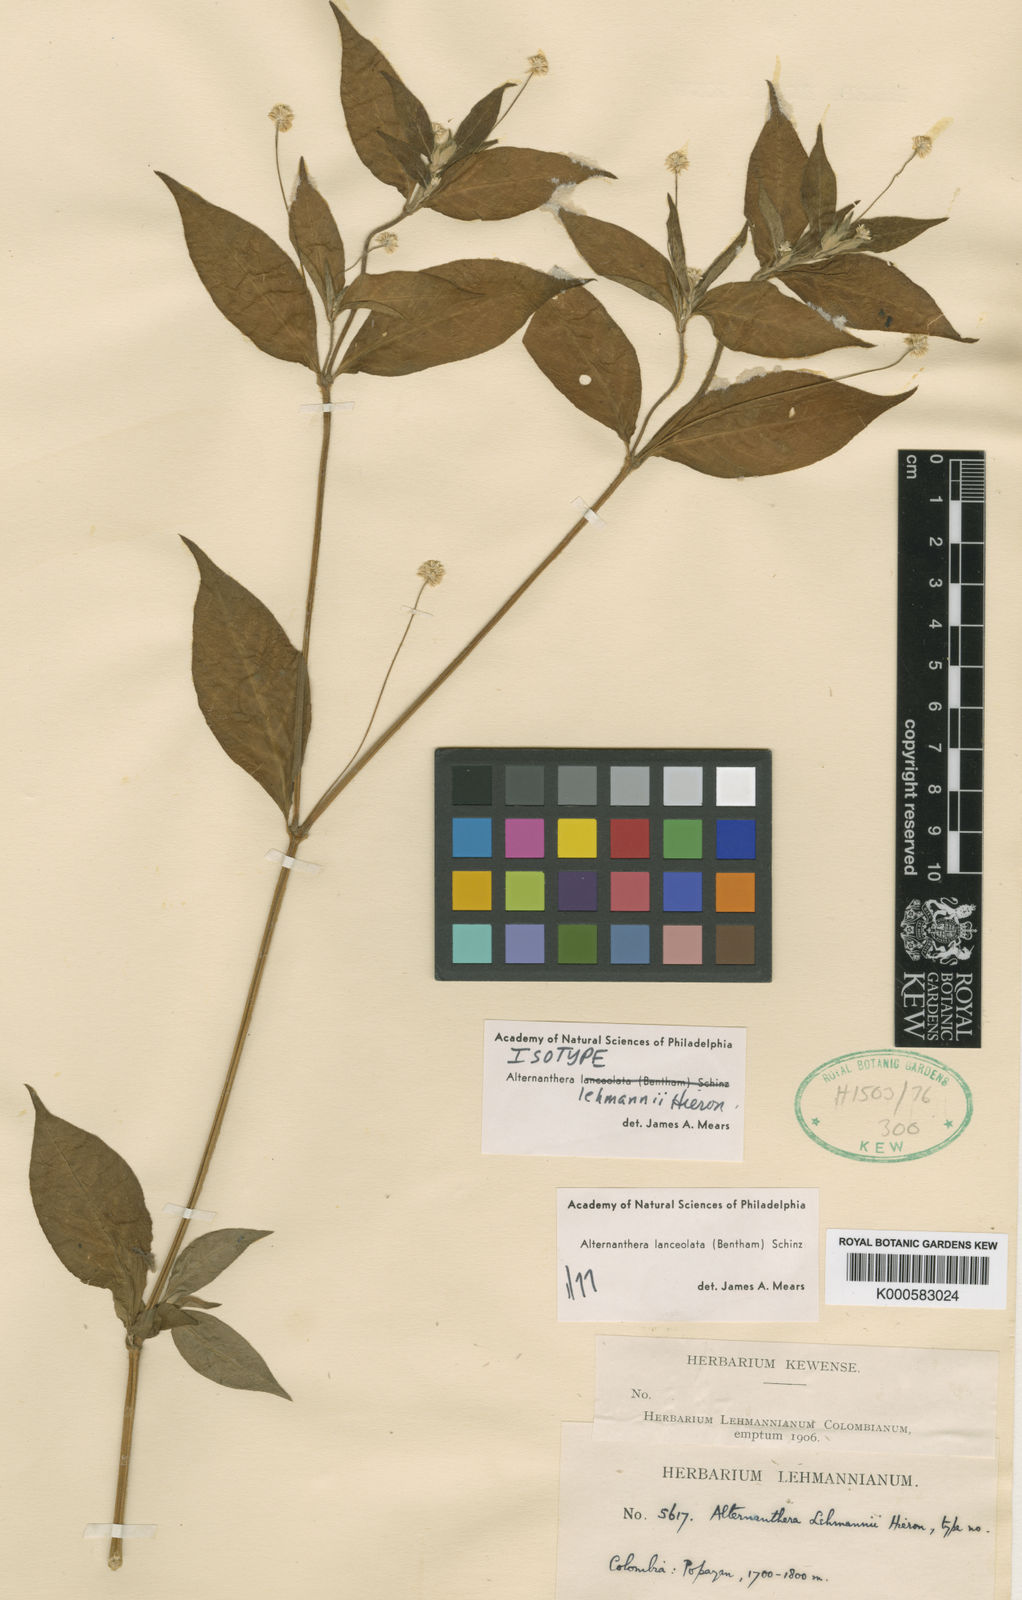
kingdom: Plantae
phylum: Tracheophyta
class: Magnoliopsida
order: Caryophyllales
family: Amaranthaceae
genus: Alternanthera
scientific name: Alternanthera lanceolata
